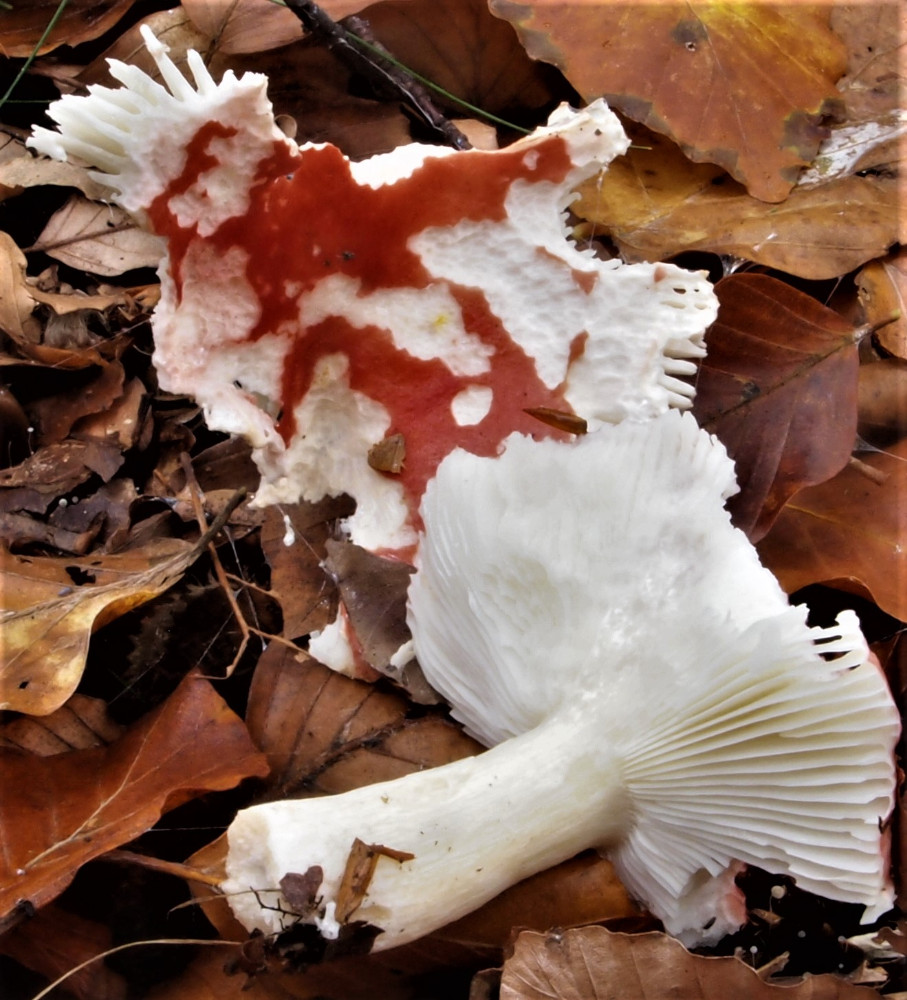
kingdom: Fungi
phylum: Basidiomycota
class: Agaricomycetes
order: Russulales
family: Russulaceae
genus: Russula
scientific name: Russula silvestris
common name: mellemstor gift-skørhat
